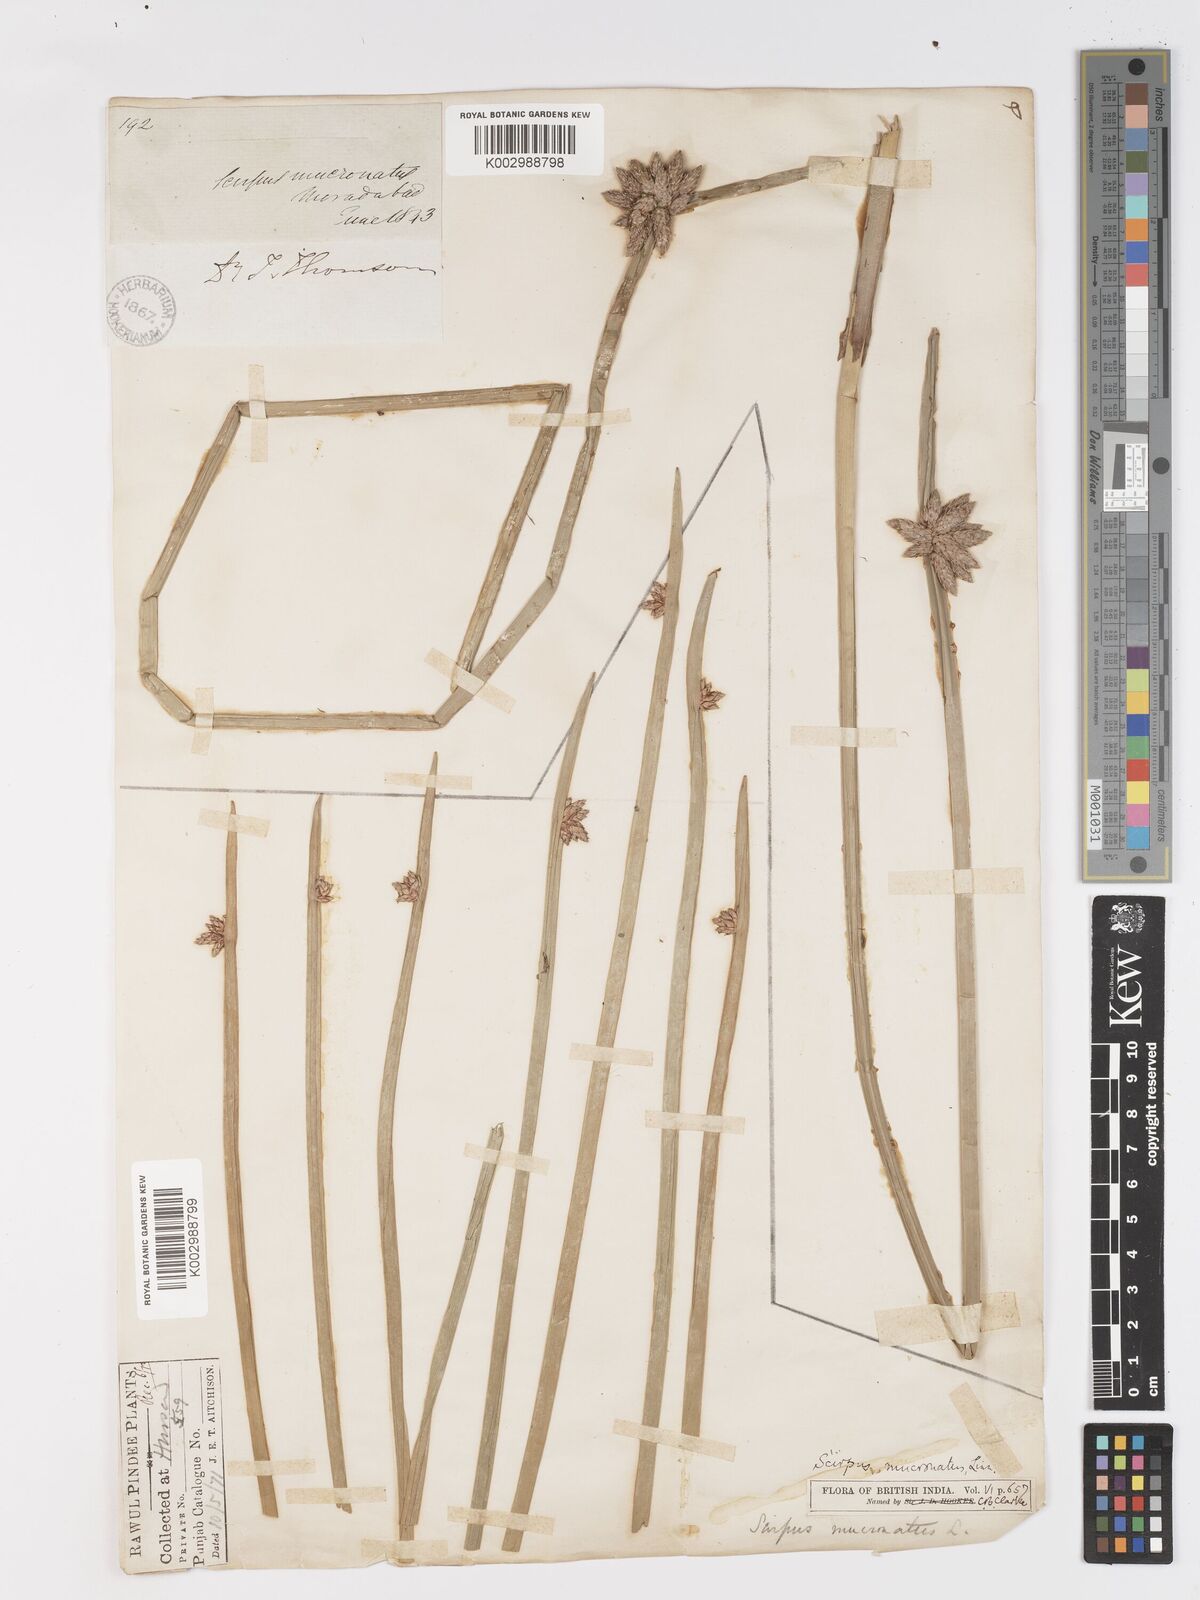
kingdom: Plantae
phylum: Tracheophyta
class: Liliopsida
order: Poales
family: Cyperaceae
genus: Schoenoplectiella
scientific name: Schoenoplectiella mucronata
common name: Bog bulrush
